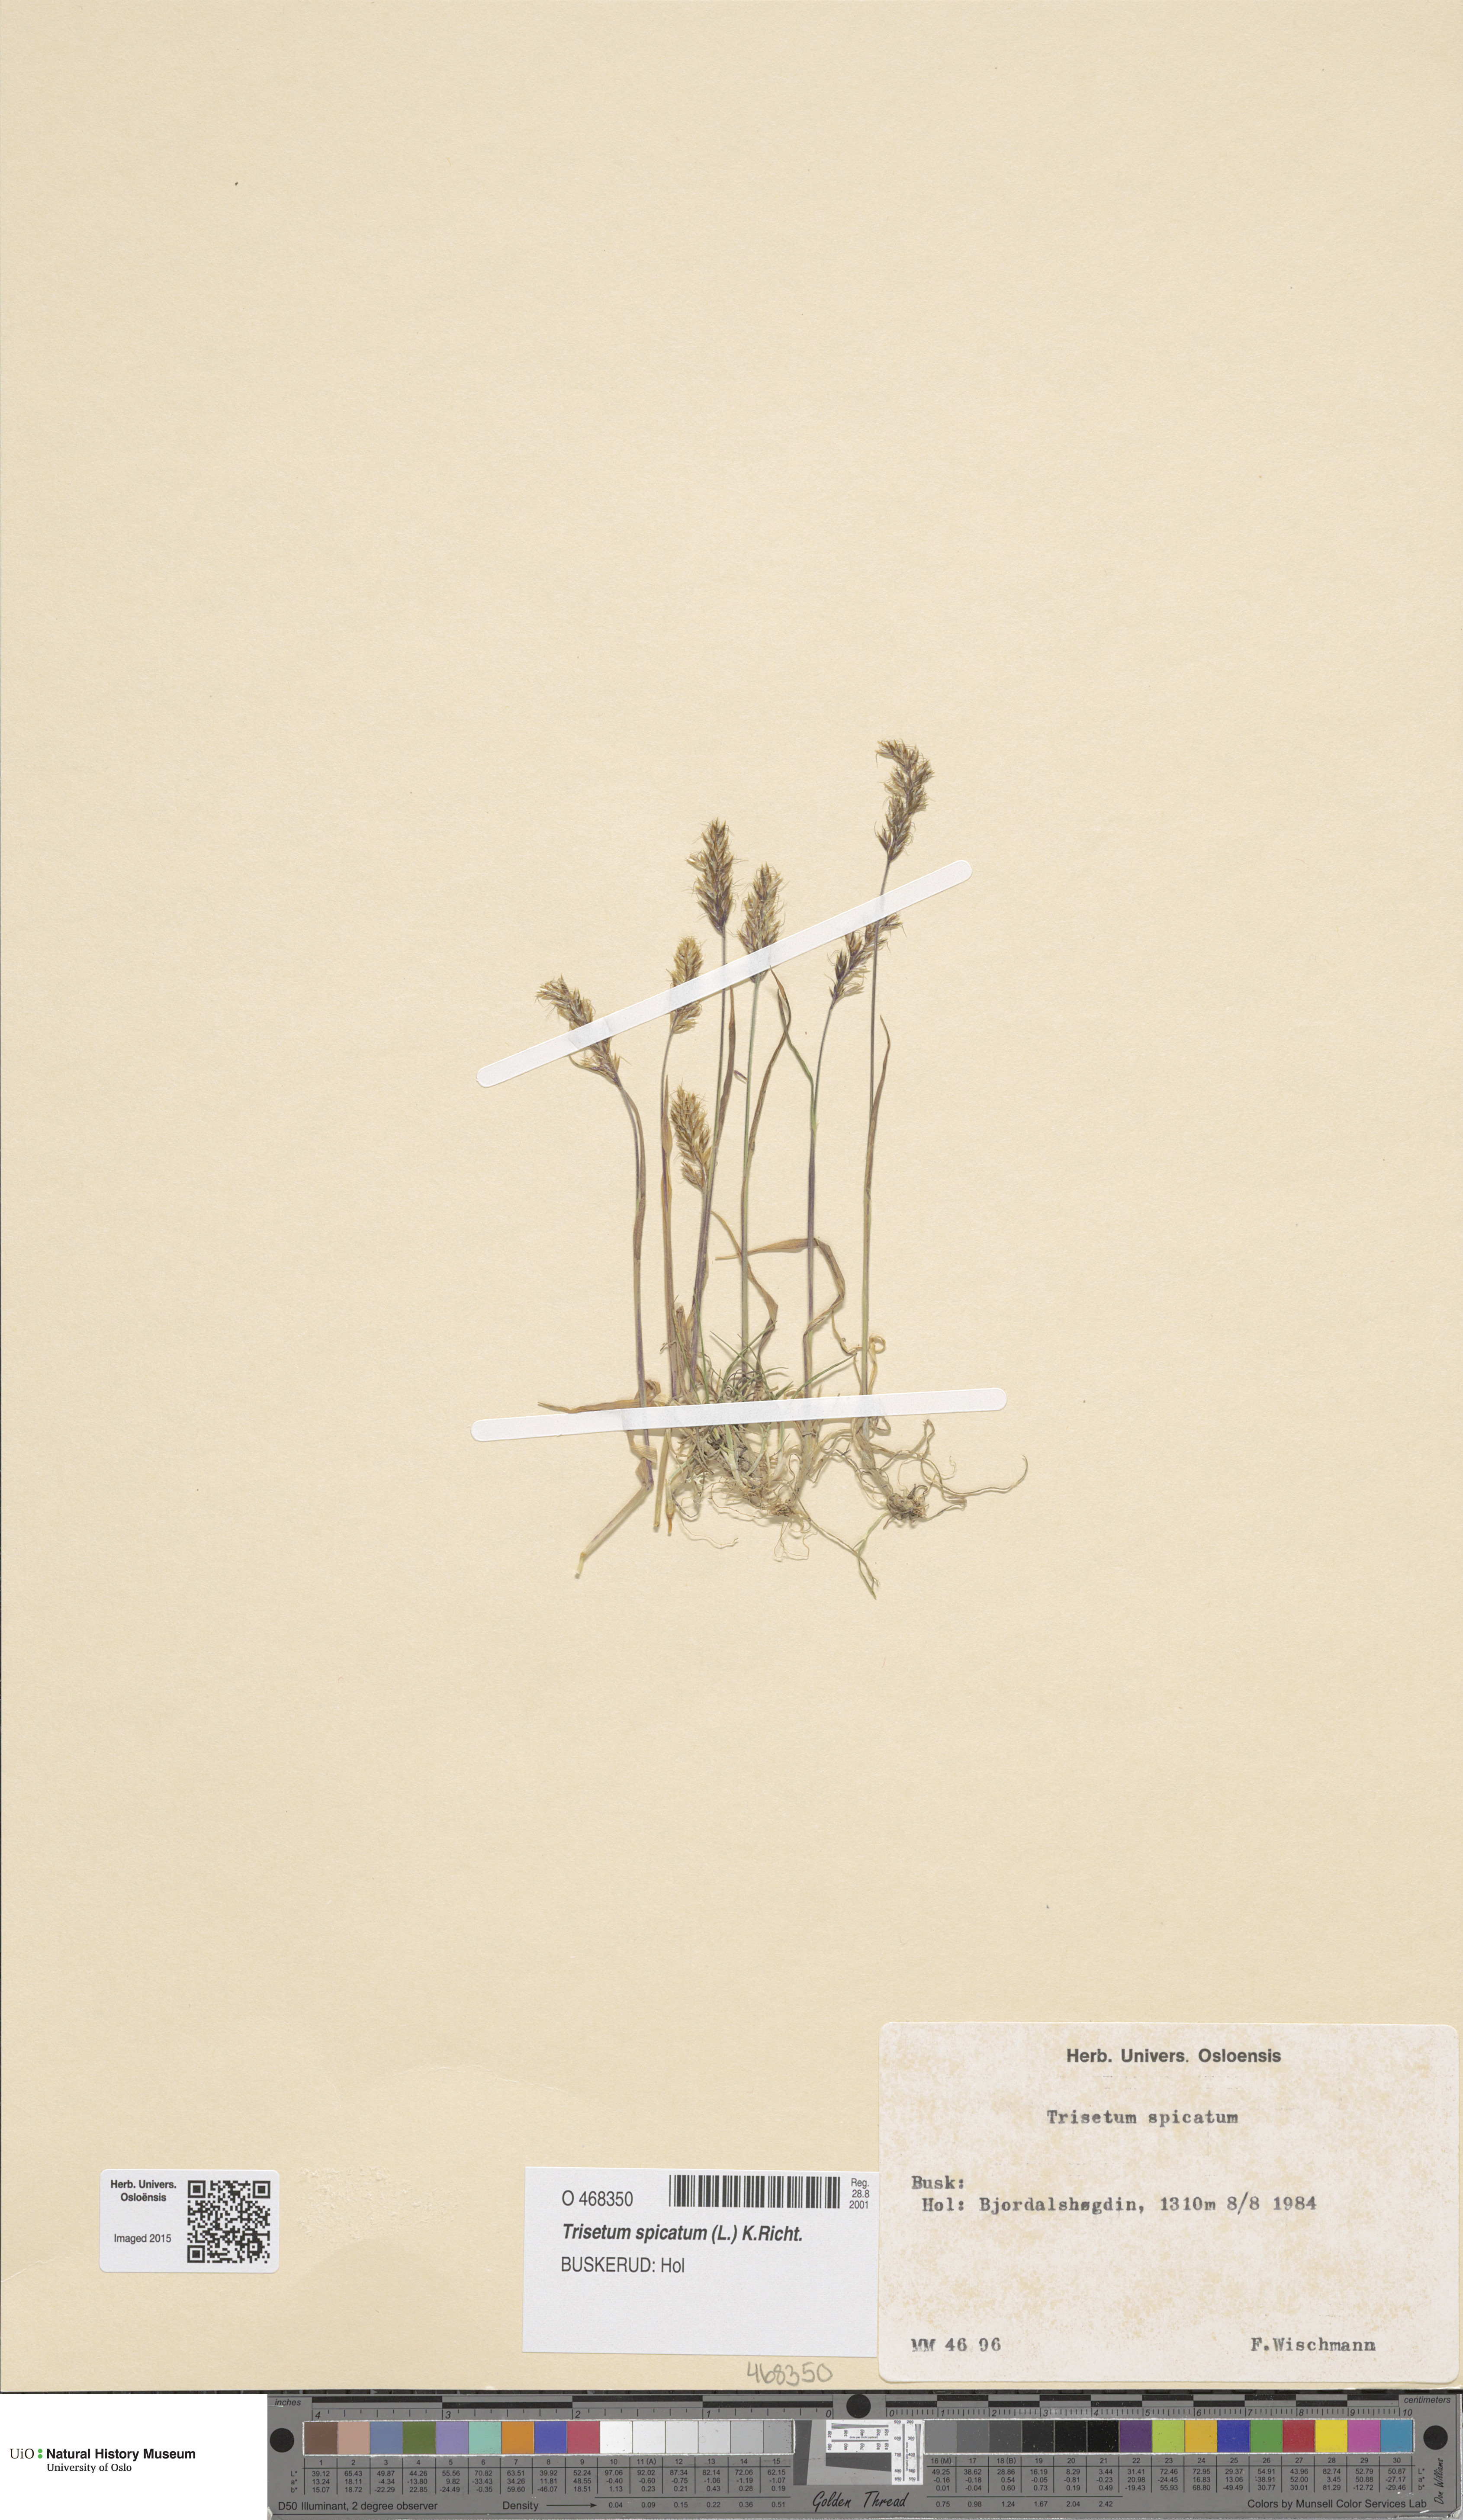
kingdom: Plantae
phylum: Tracheophyta
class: Liliopsida
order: Poales
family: Poaceae
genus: Koeleria
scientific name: Koeleria spicata
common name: Mountain trisetum
